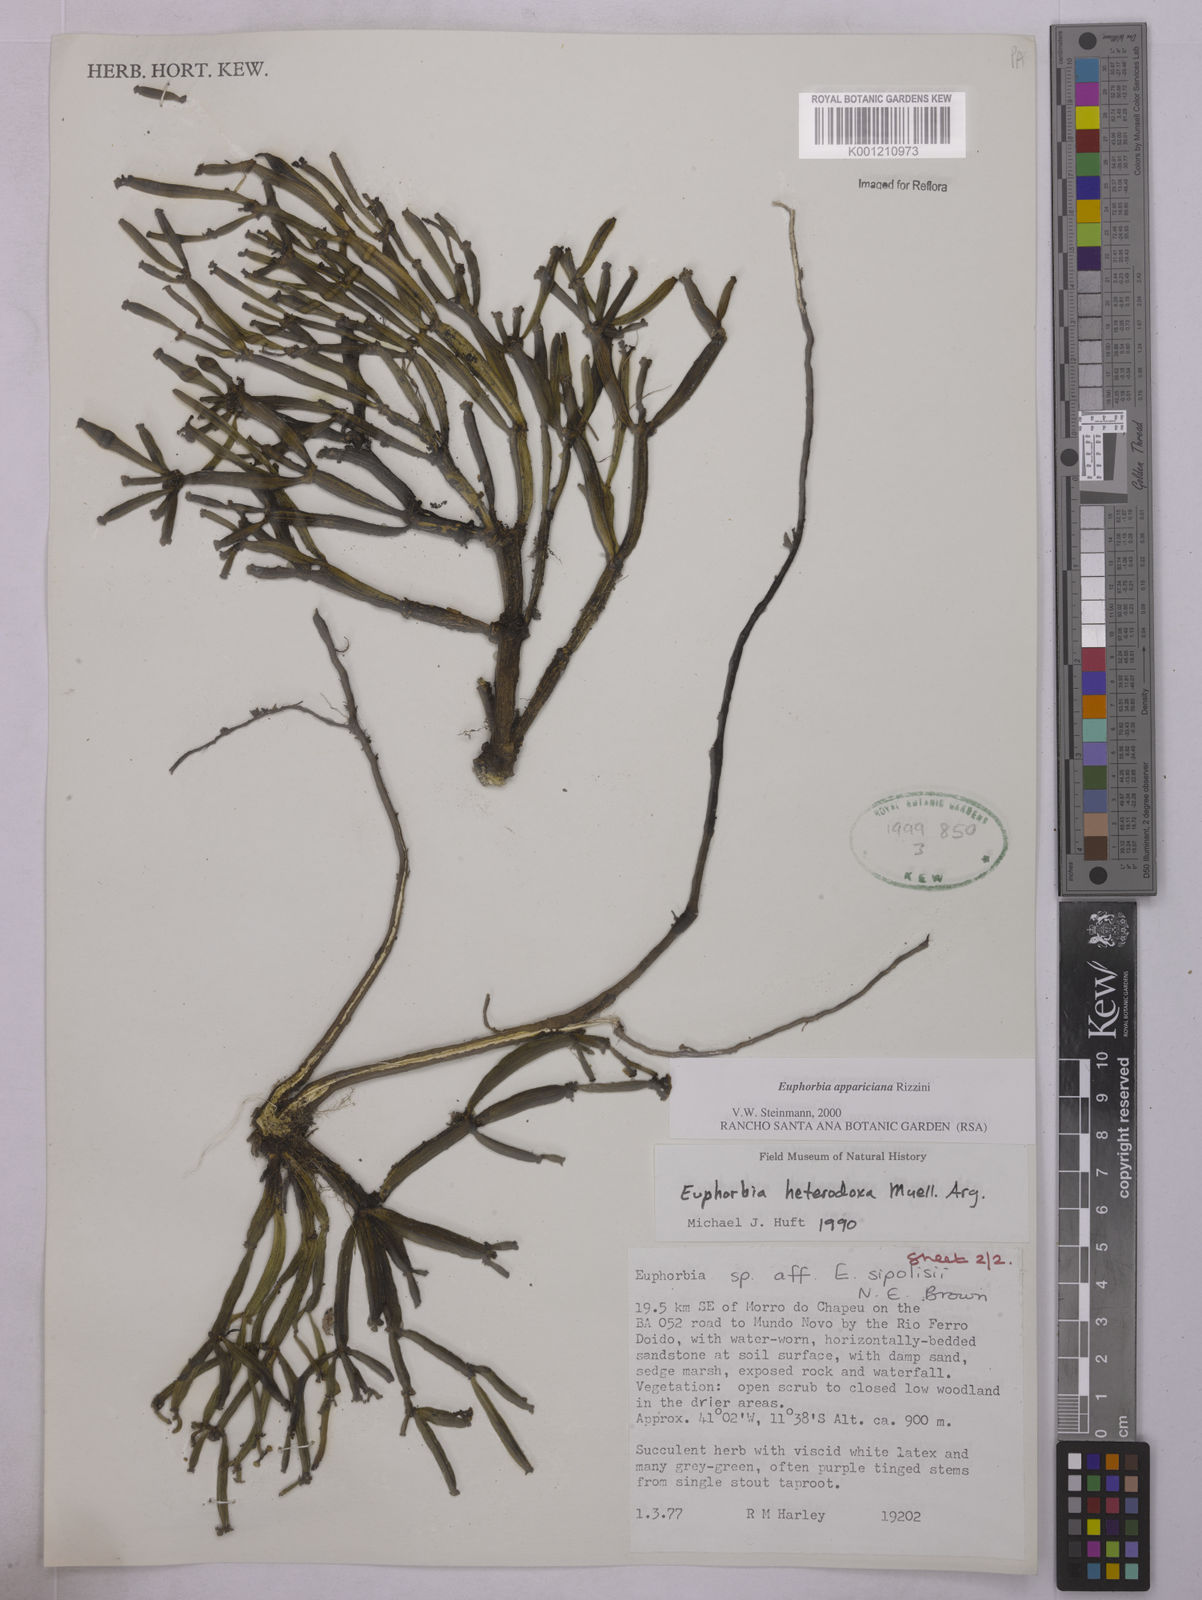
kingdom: Plantae
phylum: Tracheophyta
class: Magnoliopsida
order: Malpighiales
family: Euphorbiaceae
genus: Euphorbia
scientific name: Euphorbia appariciana
